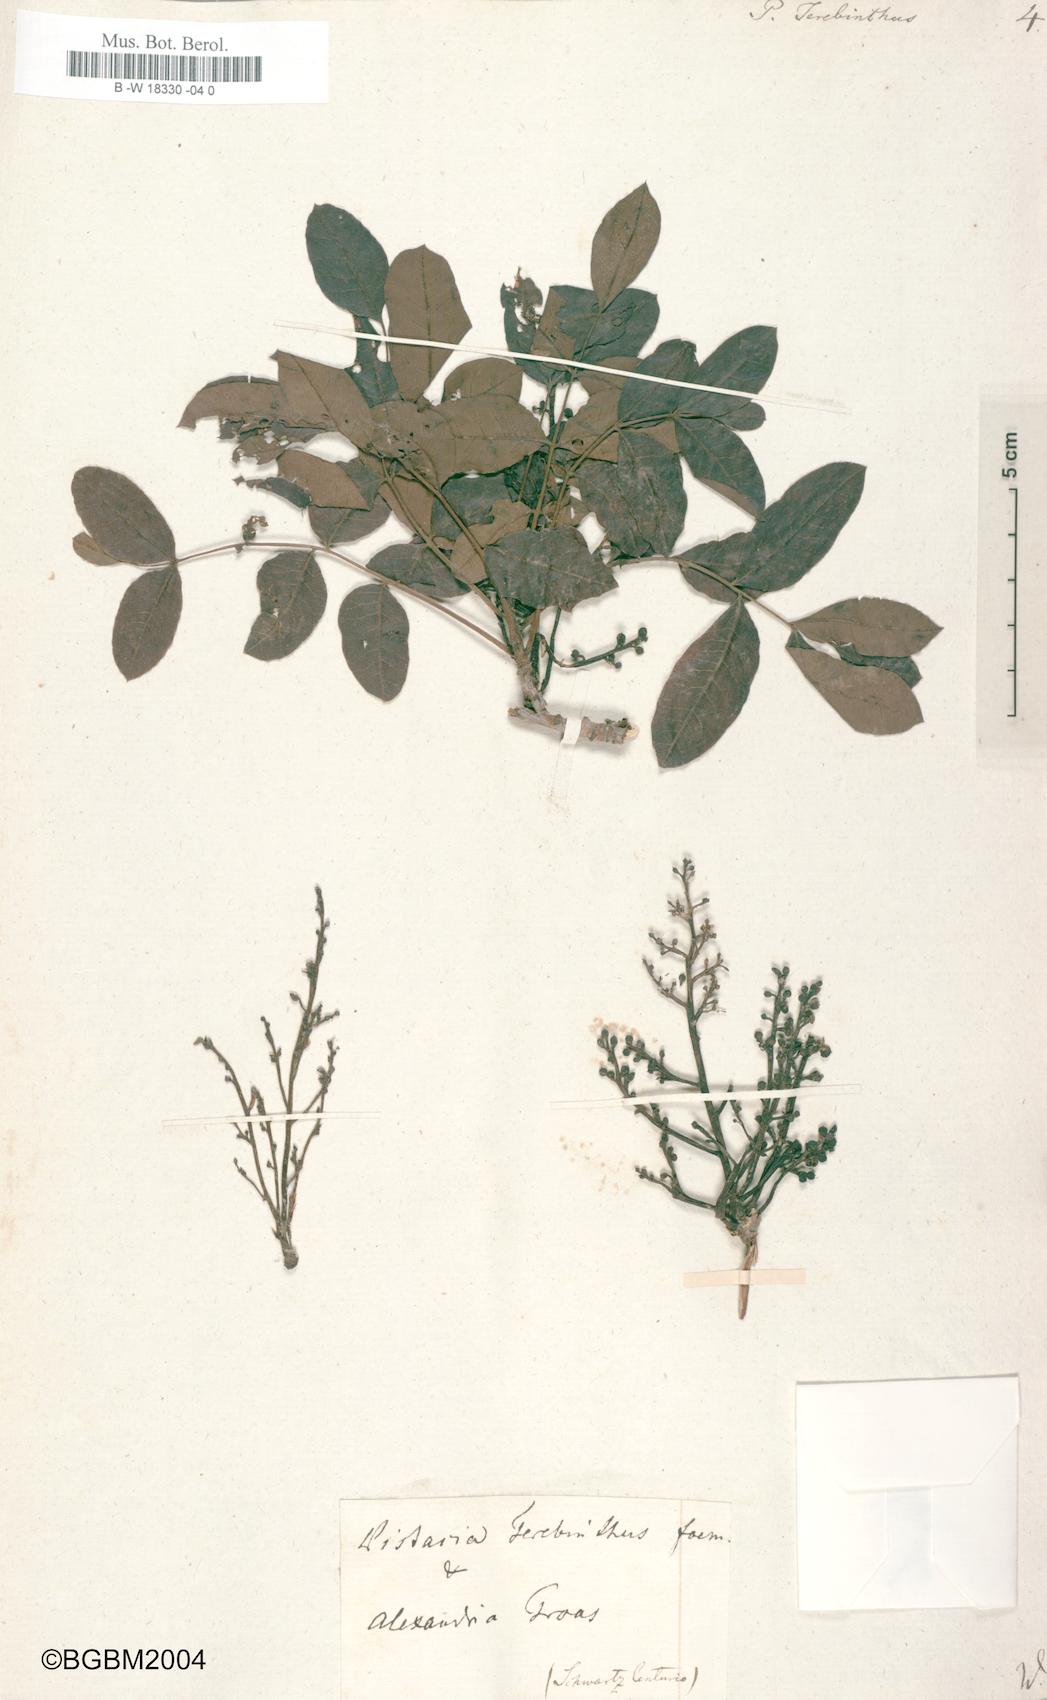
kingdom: Plantae
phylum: Tracheophyta
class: Magnoliopsida
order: Sapindales
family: Anacardiaceae
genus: Pistacia
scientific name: Pistacia terebinthus
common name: Terebinth
